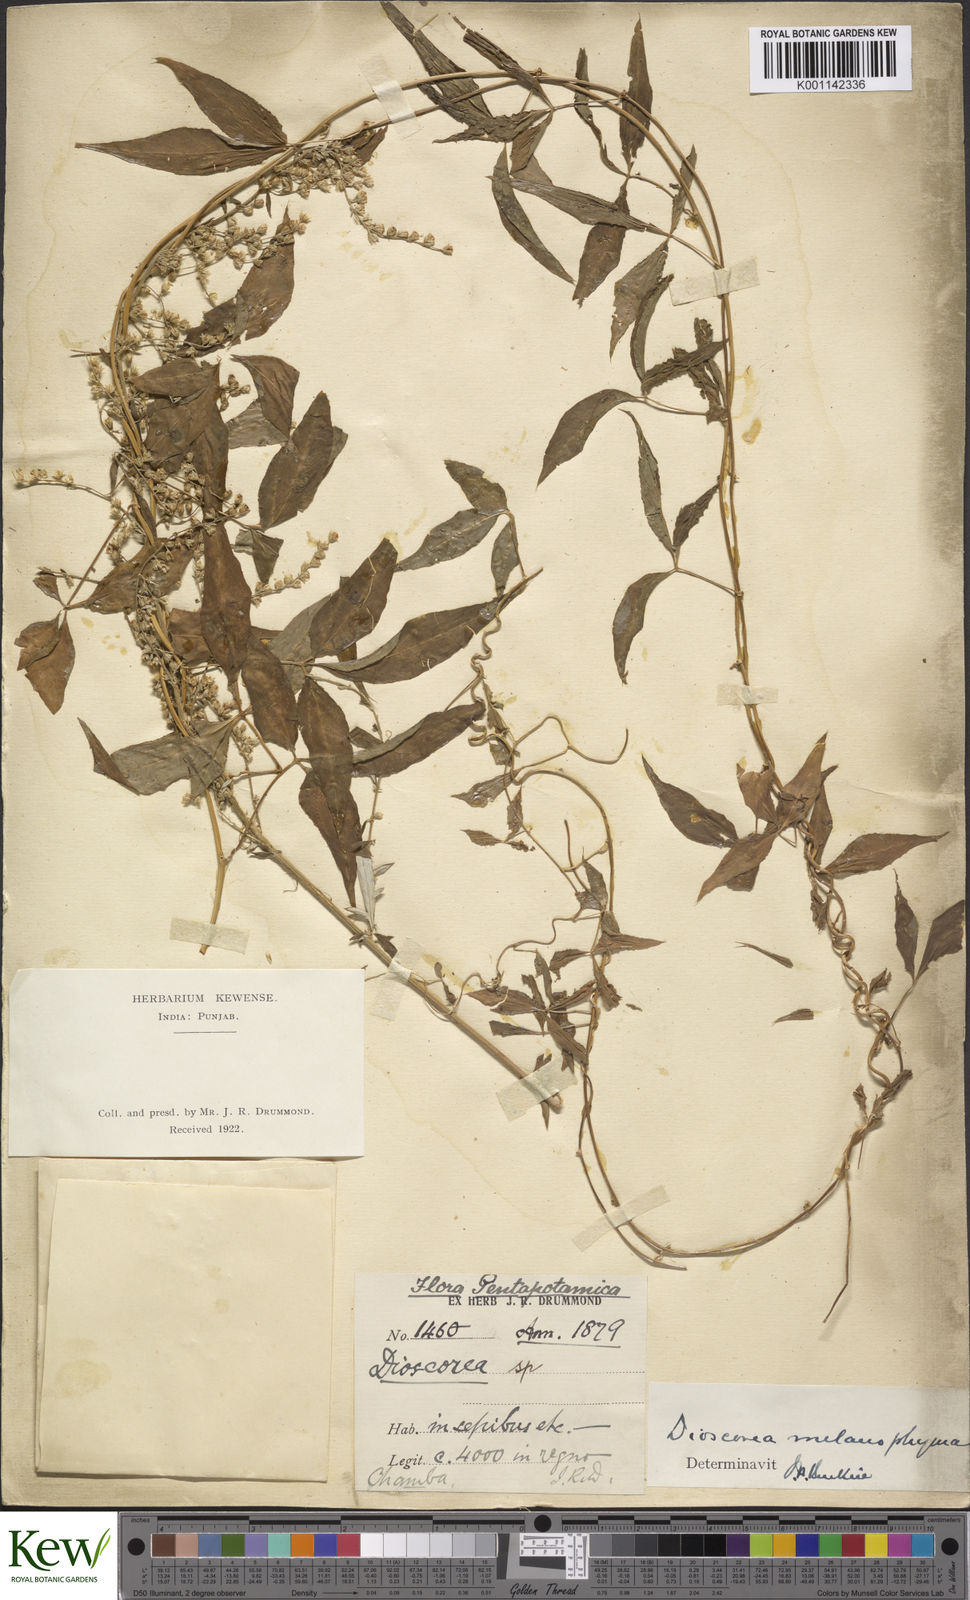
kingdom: Plantae
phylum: Tracheophyta
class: Liliopsida
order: Dioscoreales
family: Dioscoreaceae
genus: Dioscorea
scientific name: Dioscorea melanophyma
